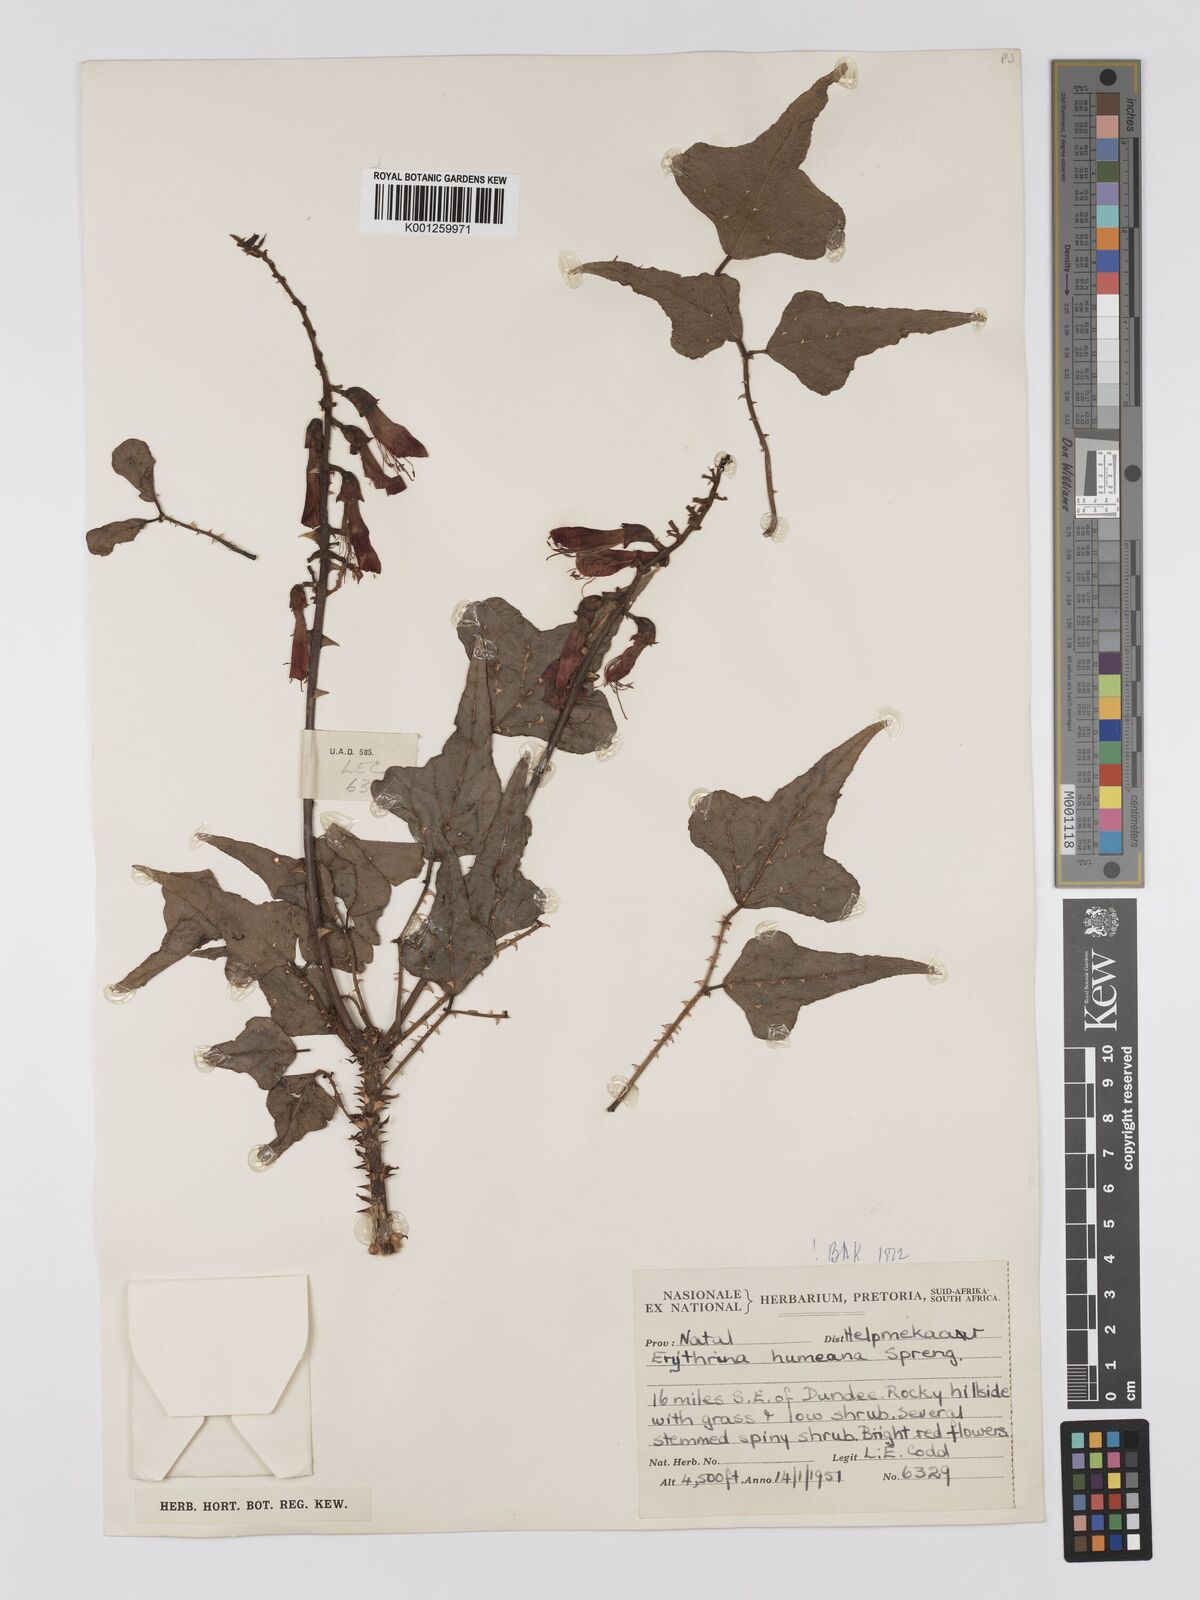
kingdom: Plantae
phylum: Tracheophyta
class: Magnoliopsida
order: Fabales
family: Fabaceae
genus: Erythrina
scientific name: Erythrina humeana
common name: Dwarf coral tree
